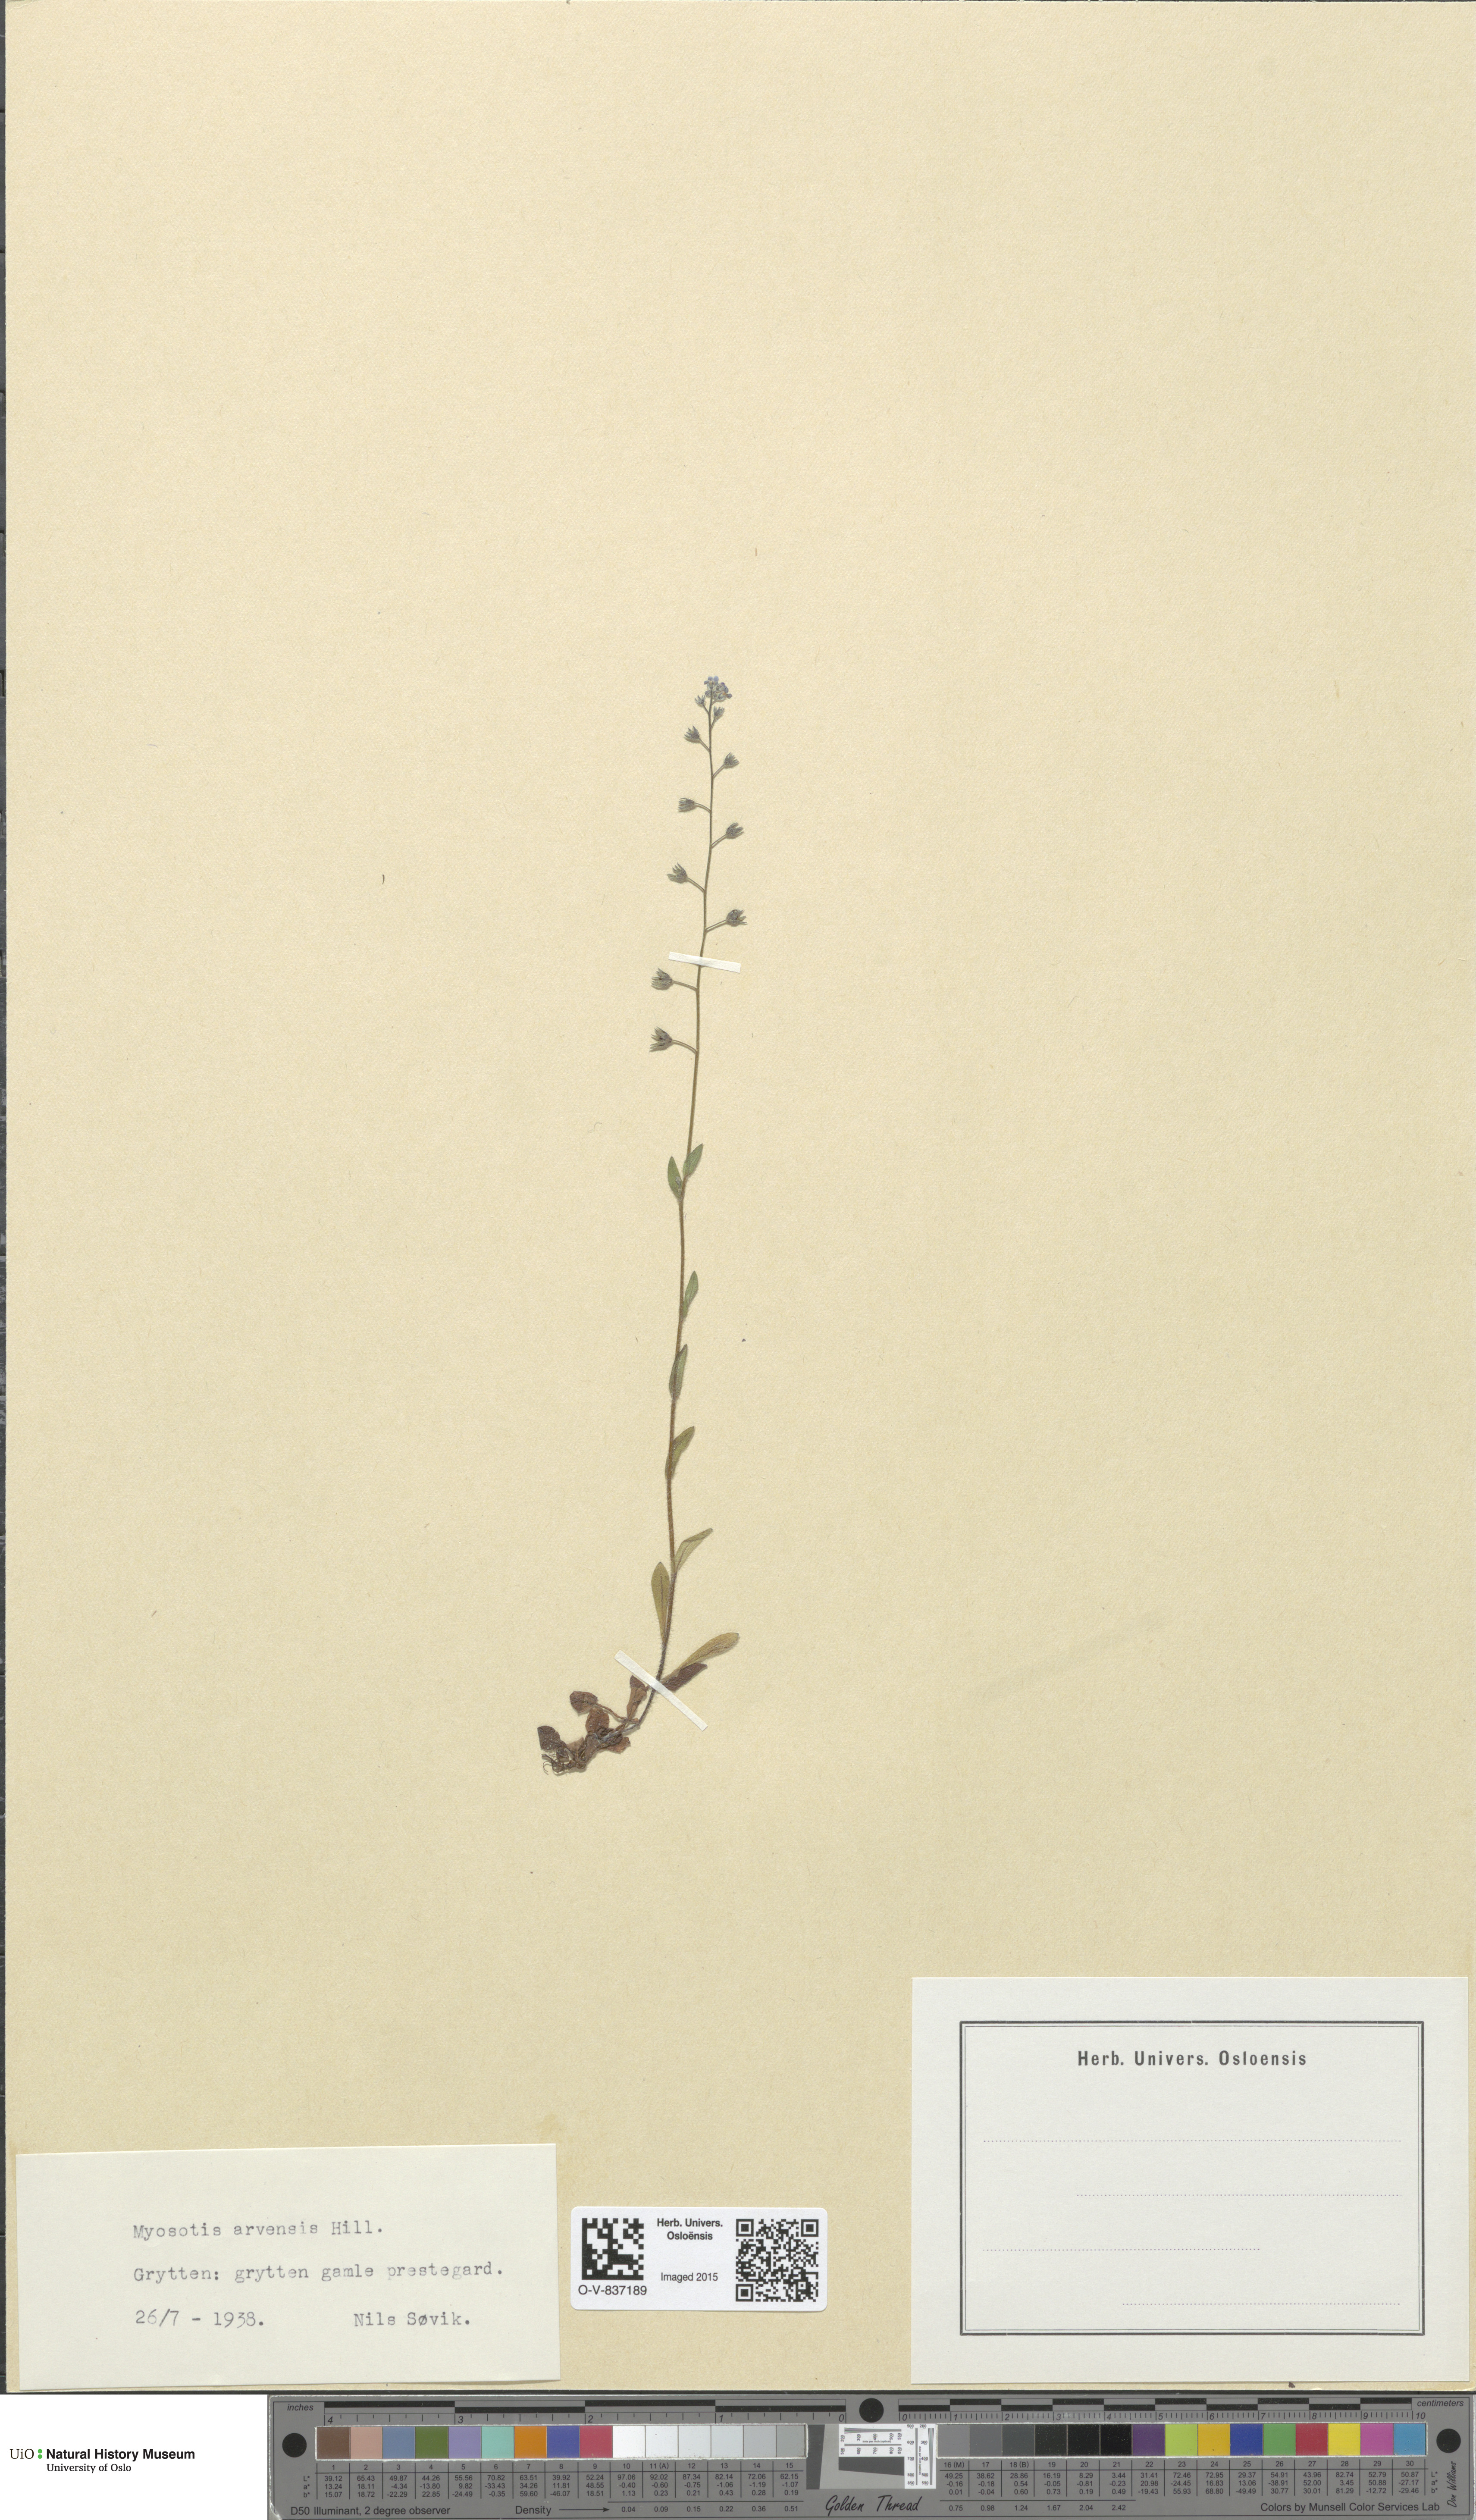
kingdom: Plantae
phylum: Tracheophyta
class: Magnoliopsida
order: Boraginales
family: Boraginaceae
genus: Myosotis
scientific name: Myosotis arvensis
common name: Field forget-me-not
